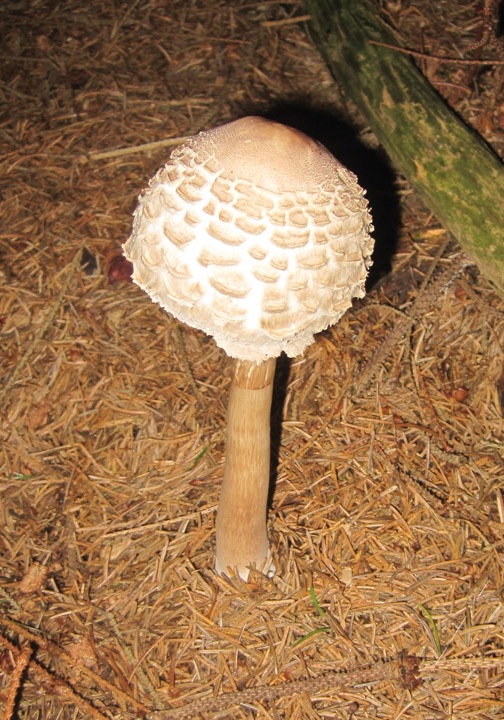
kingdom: Fungi
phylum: Basidiomycota
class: Agaricomycetes
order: Agaricales
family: Agaricaceae
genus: Chlorophyllum
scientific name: Chlorophyllum rhacodes
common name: ægte rabarberhat
